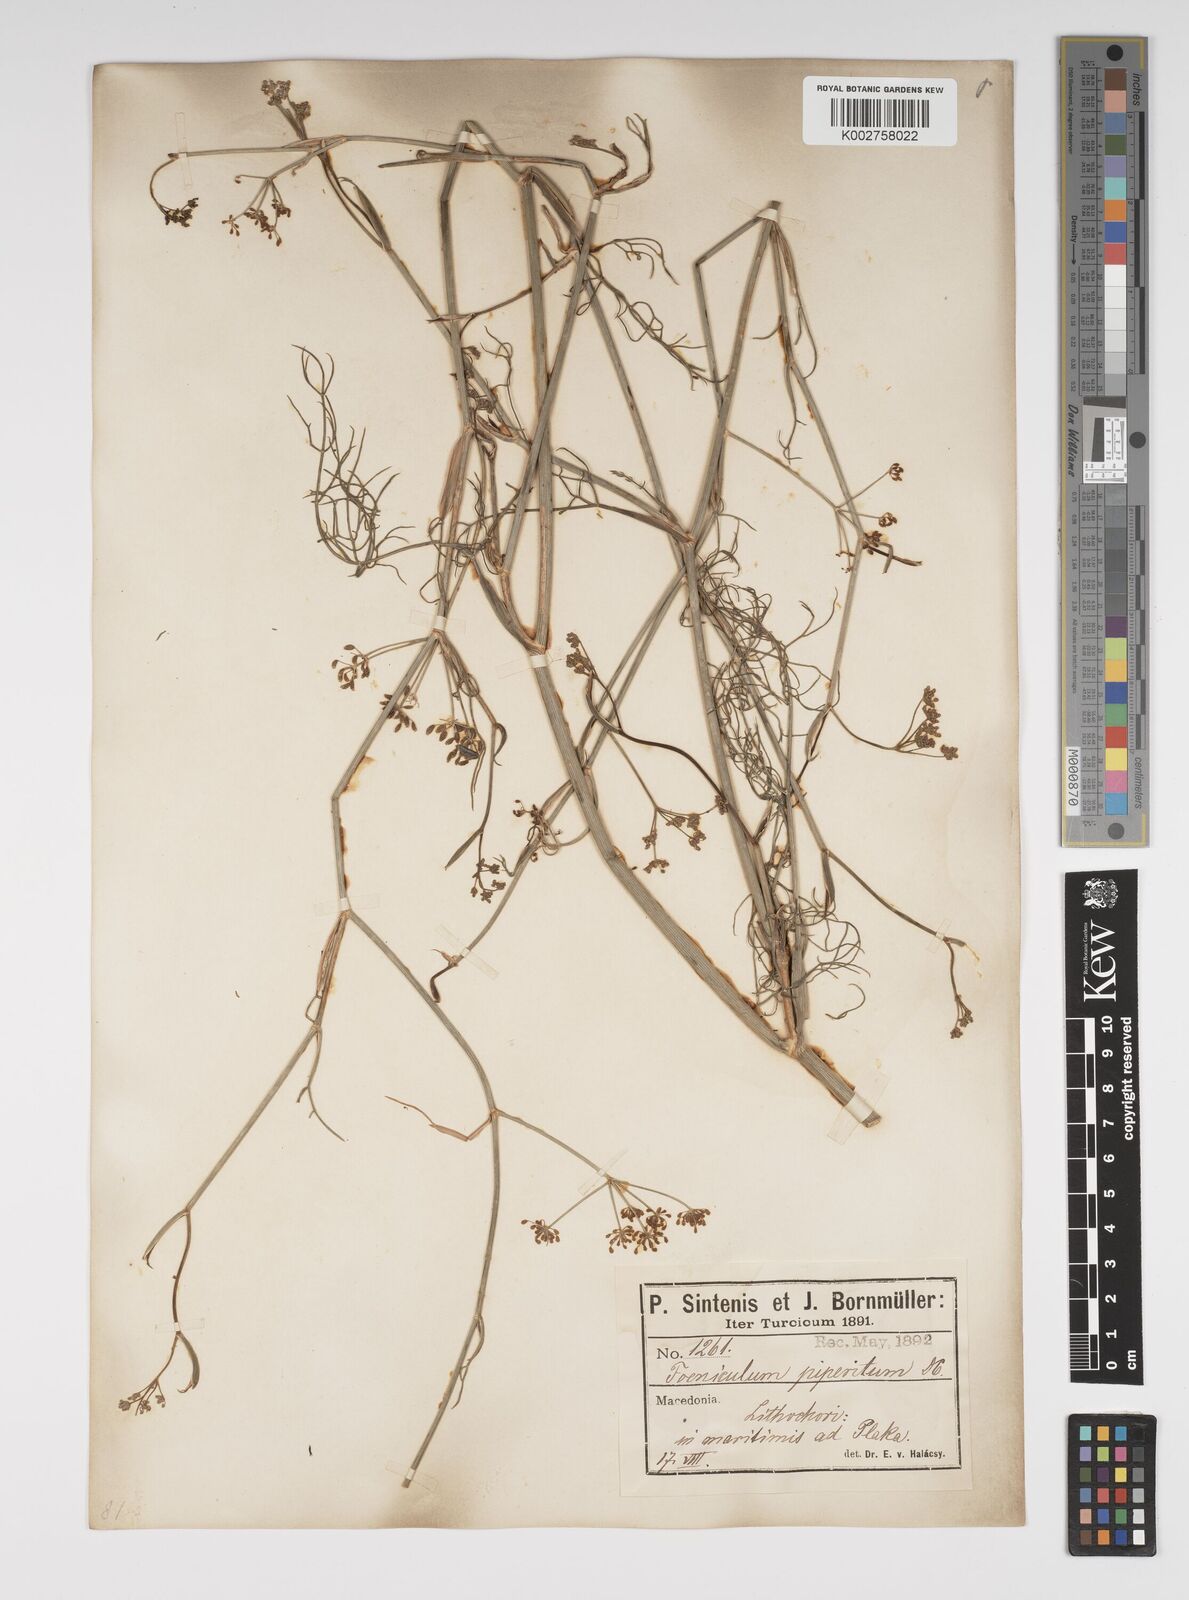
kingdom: Plantae
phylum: Tracheophyta
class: Magnoliopsida
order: Apiales
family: Apiaceae
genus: Foeniculum
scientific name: Foeniculum vulgare
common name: Fennel
